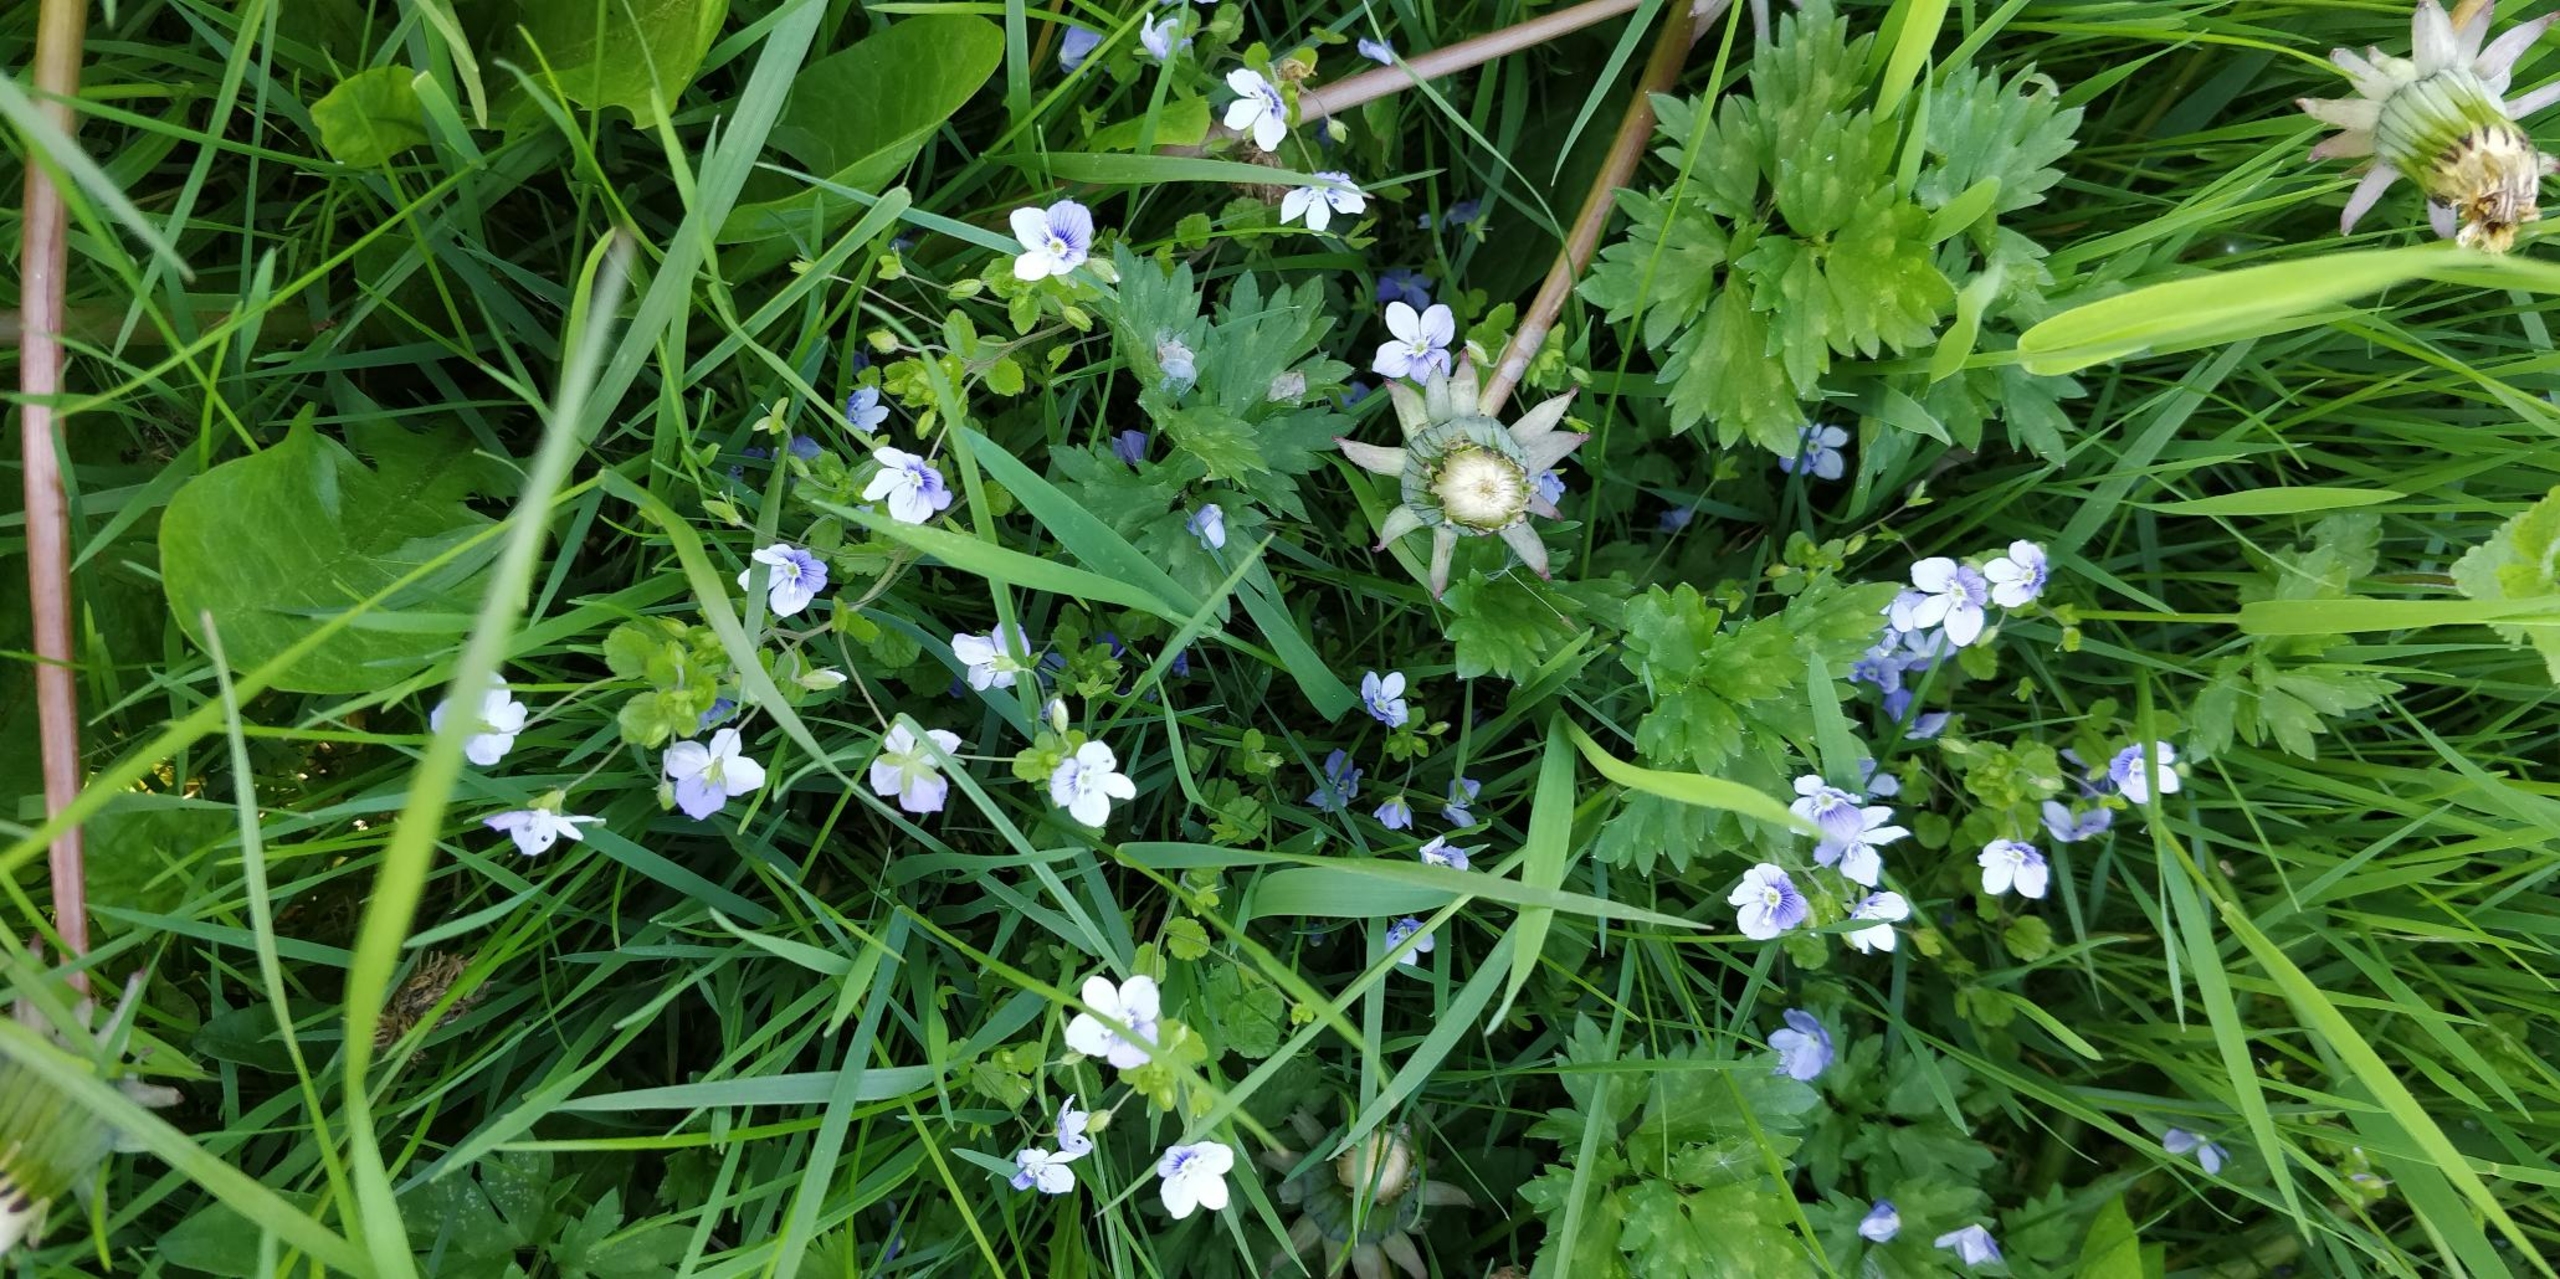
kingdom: Plantae
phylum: Tracheophyta
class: Magnoliopsida
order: Lamiales
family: Plantaginaceae
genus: Veronica
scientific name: Veronica filiformis
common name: Tråd-ærenpris
